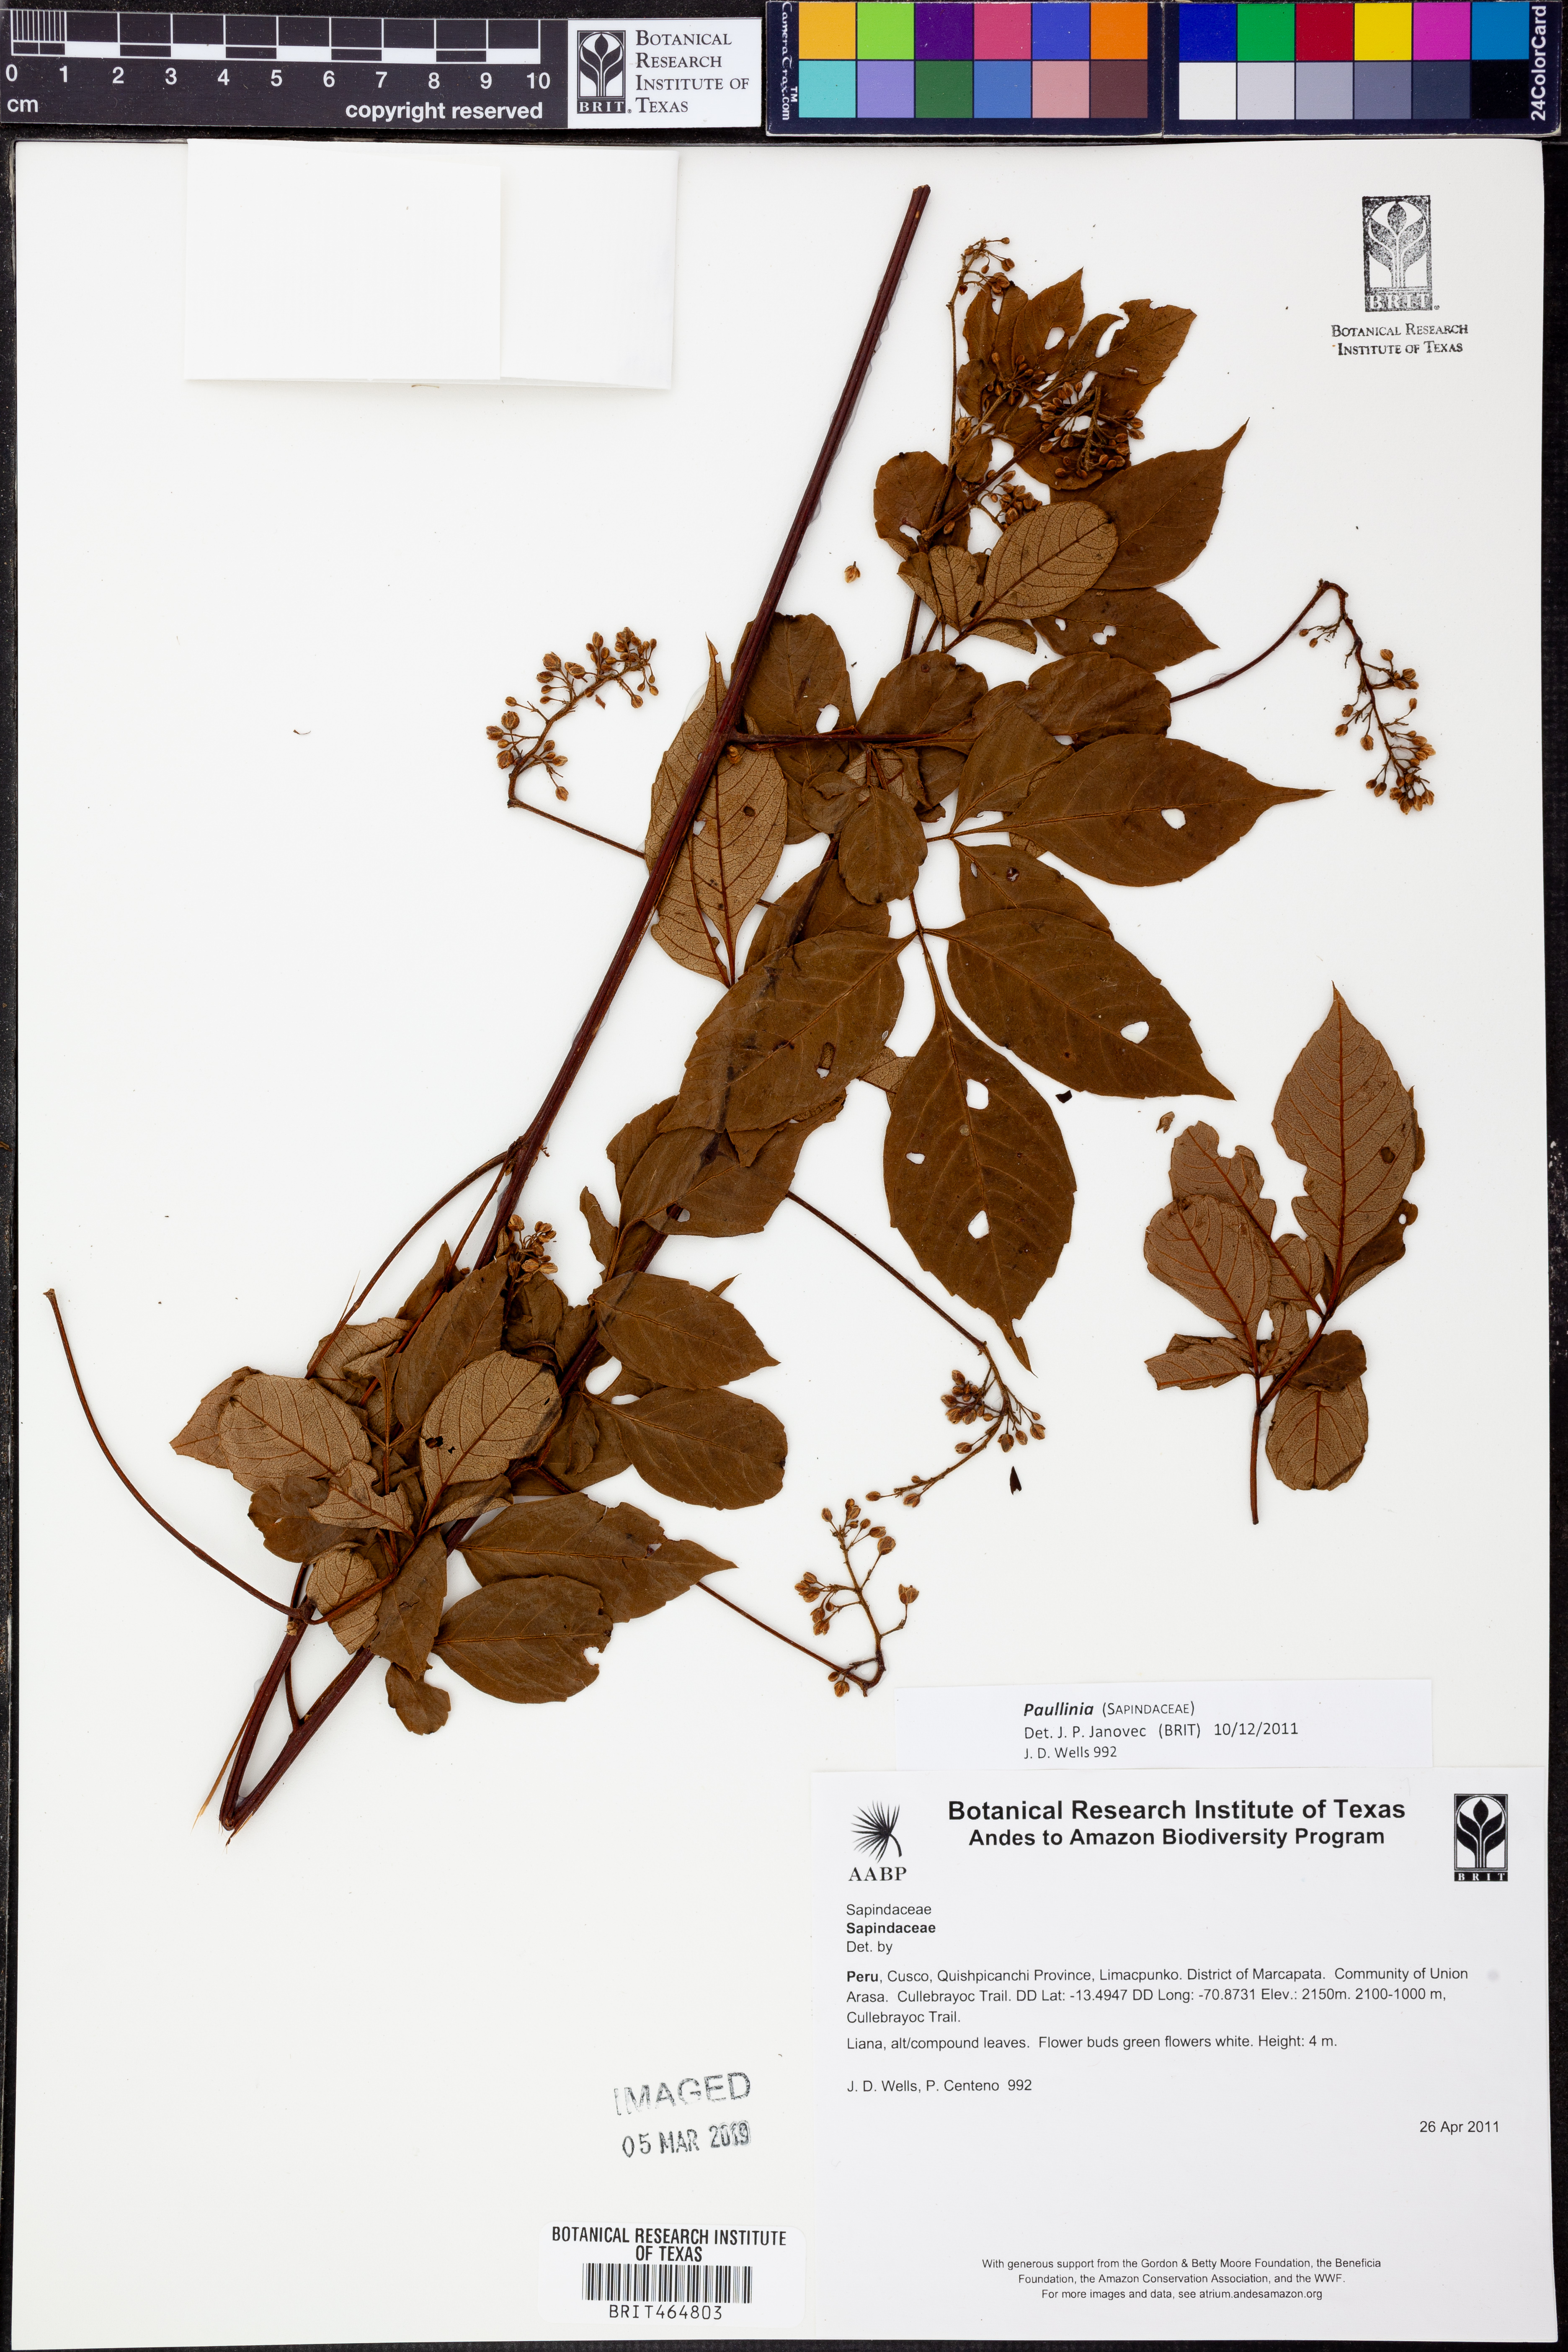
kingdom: Plantae
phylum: Tracheophyta
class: Magnoliopsida
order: Sapindales
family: Sapindaceae
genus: Paullinia
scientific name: Paullinia
